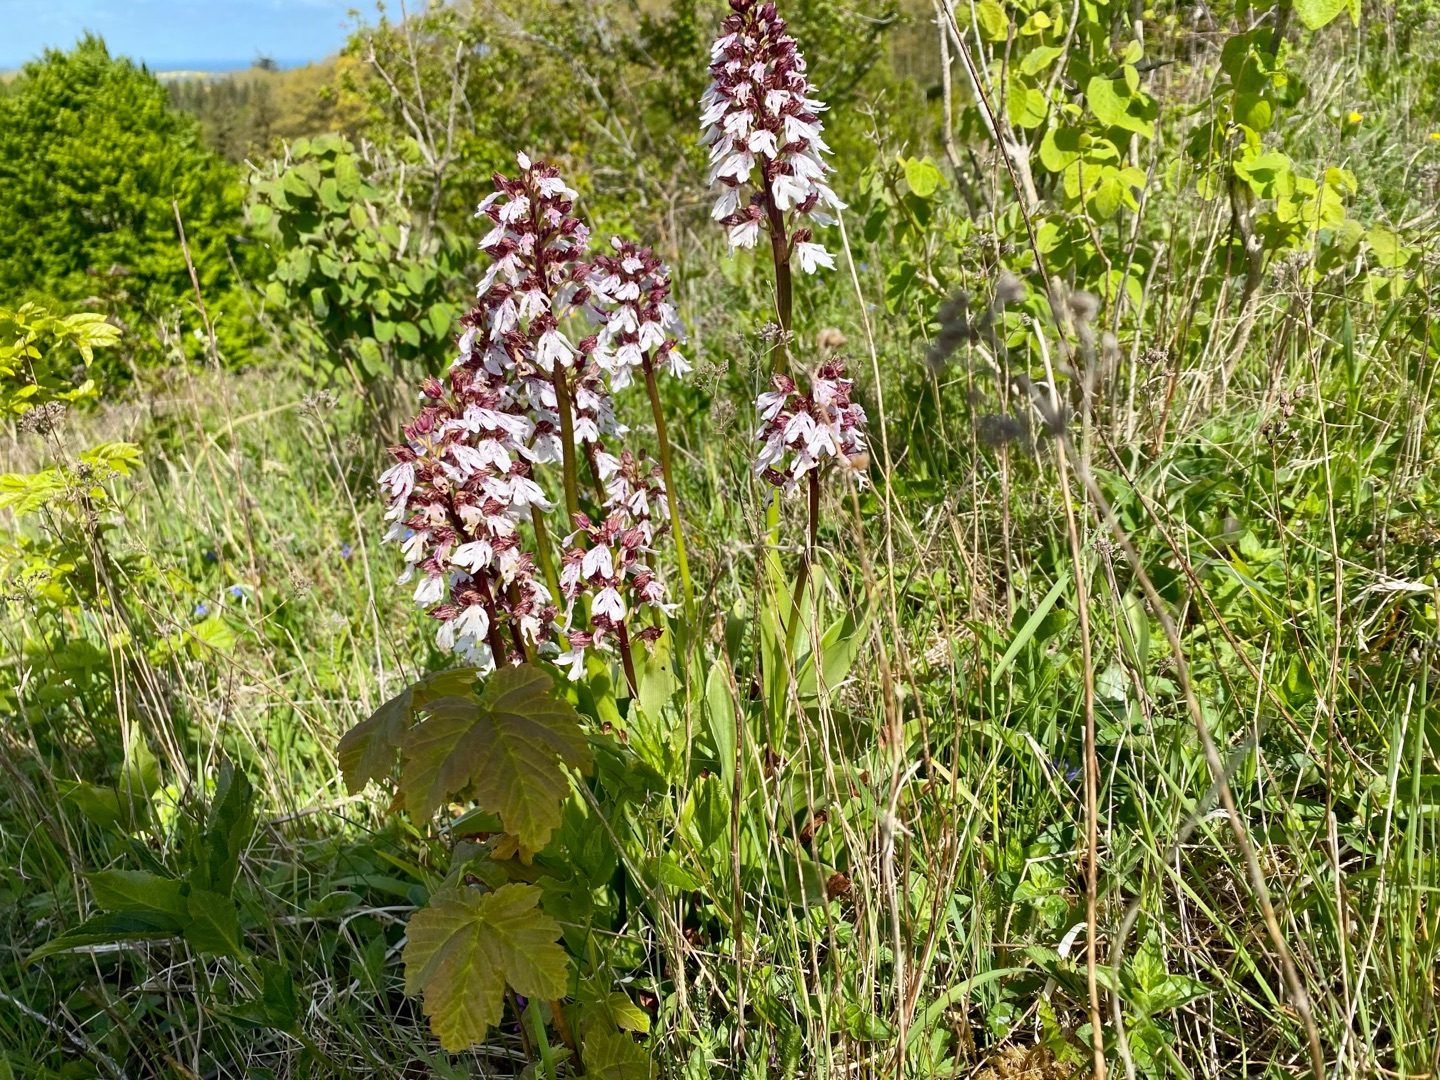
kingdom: Plantae
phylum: Tracheophyta
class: Liliopsida
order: Asparagales
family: Orchidaceae
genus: Orchis
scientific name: Orchis purpurea
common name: Stor gøgeurt
